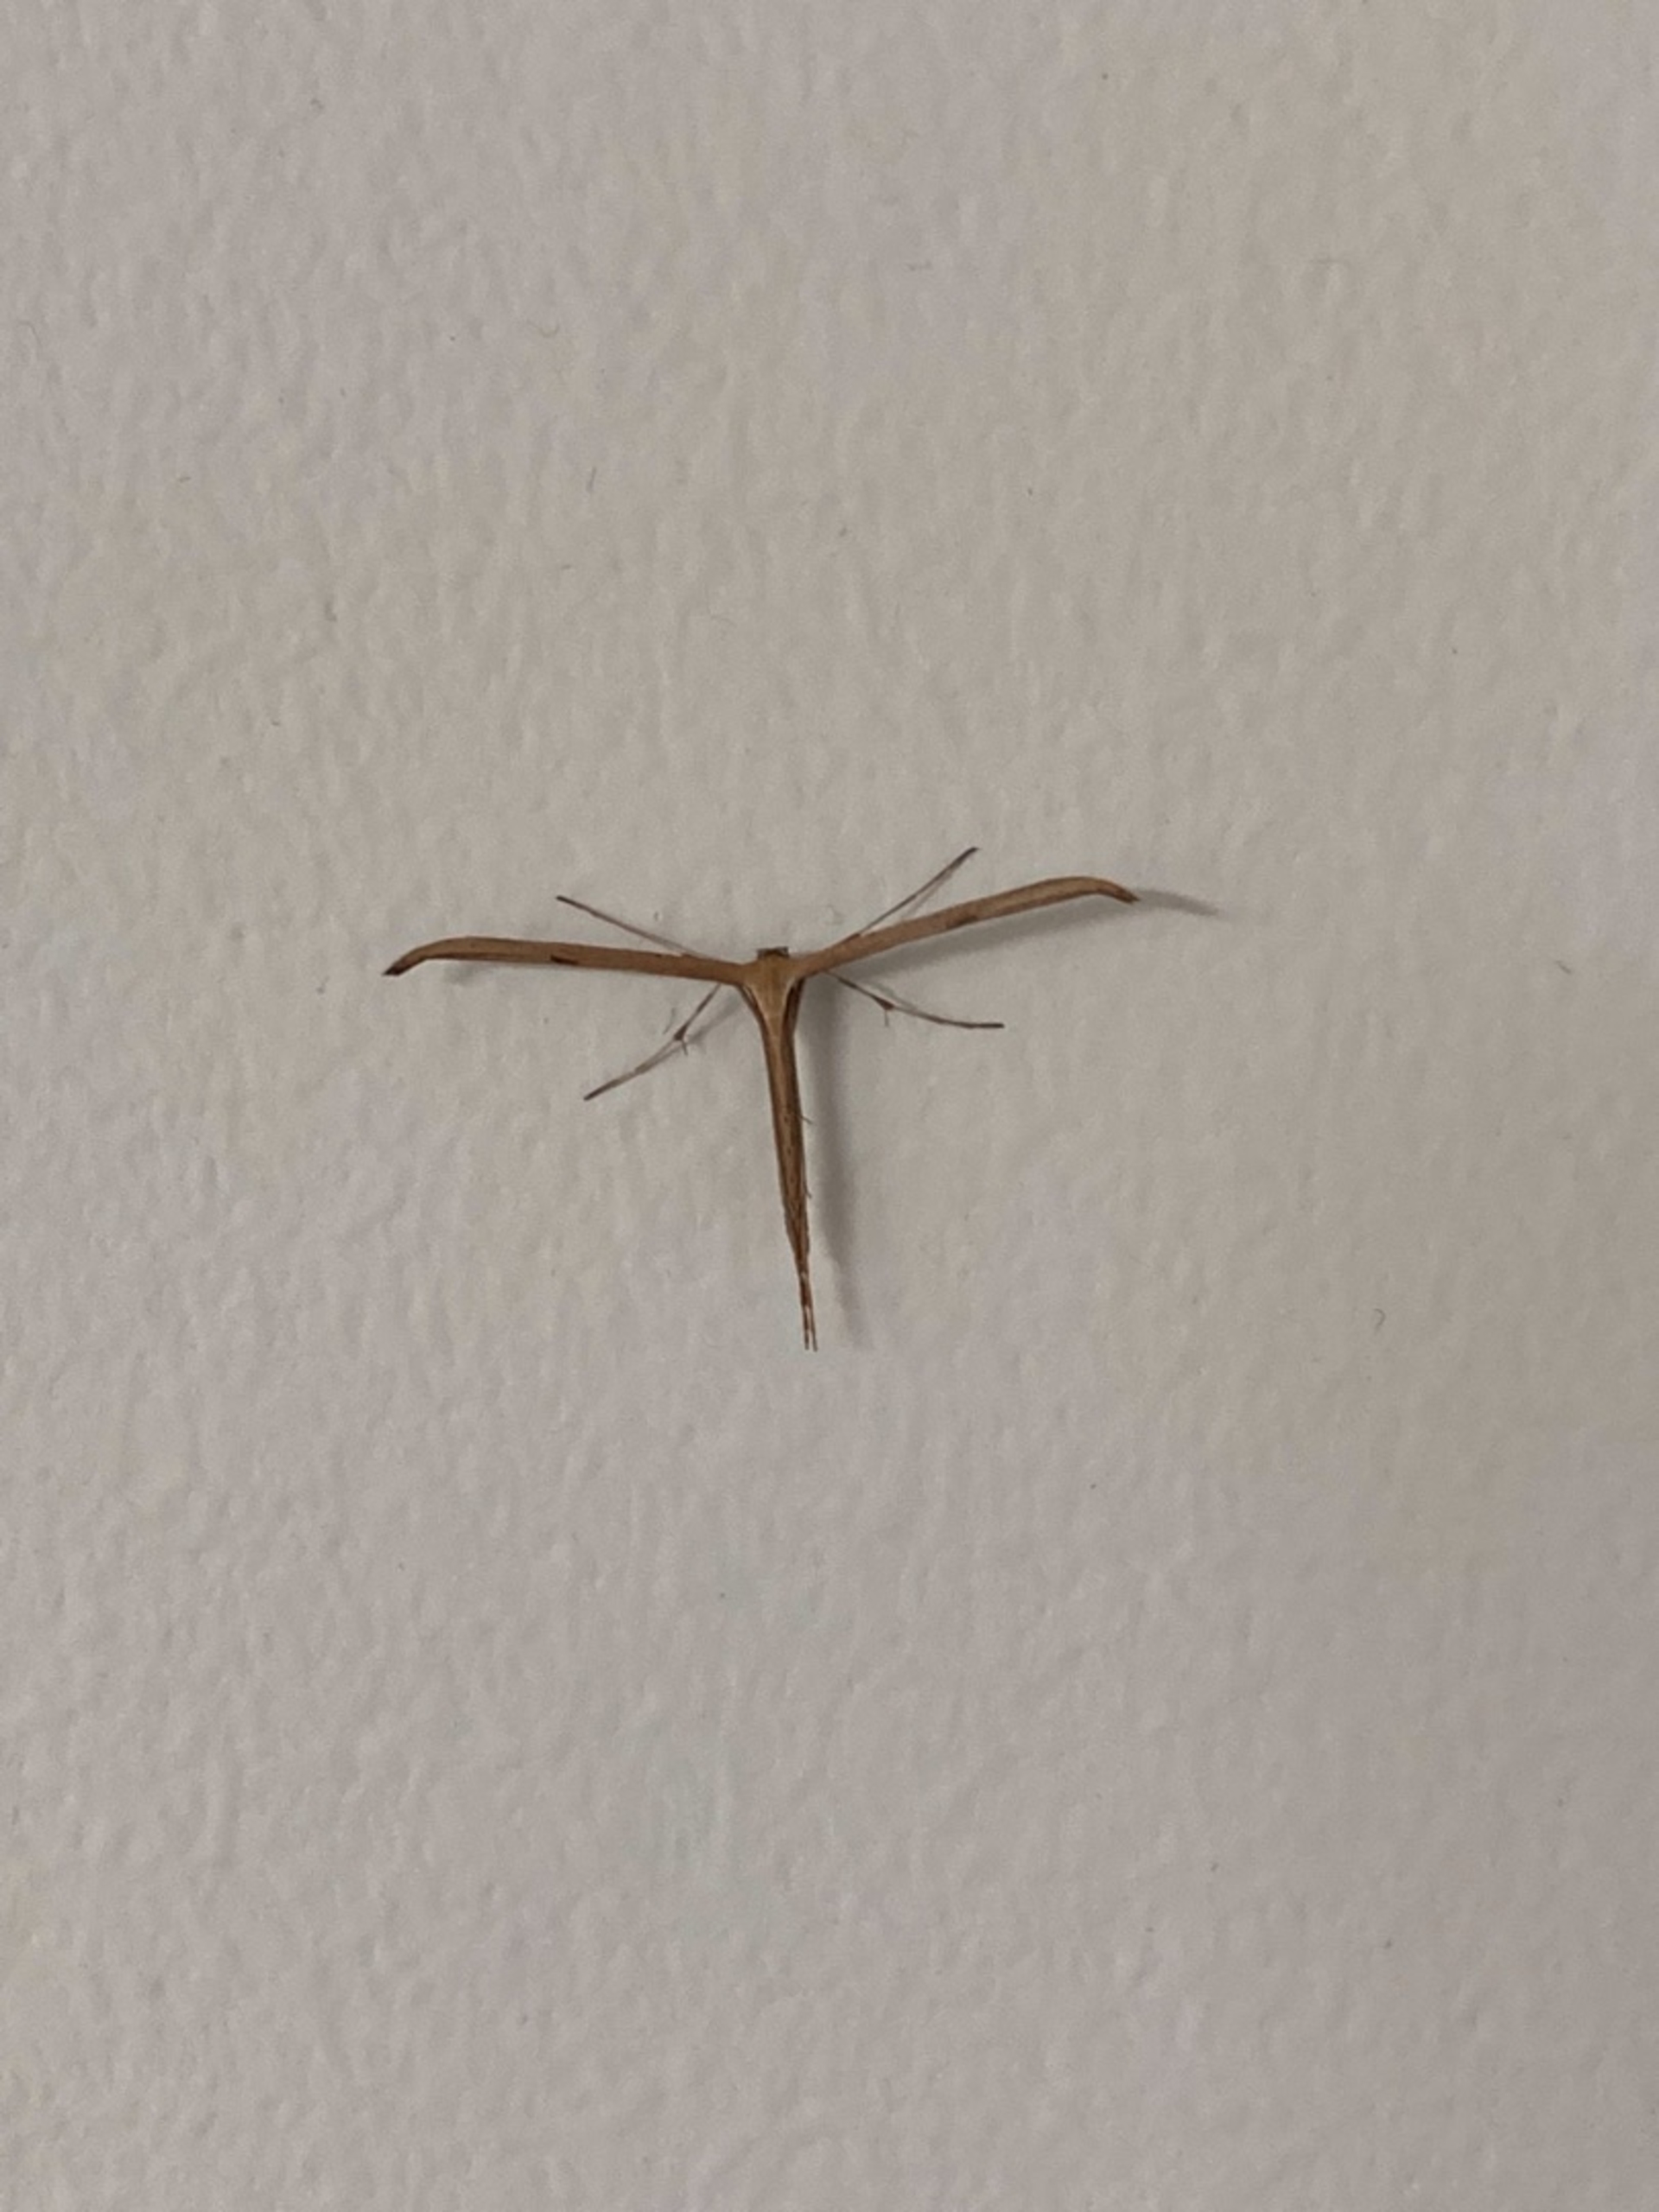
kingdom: Animalia
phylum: Arthropoda
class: Insecta
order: Lepidoptera
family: Pterophoridae
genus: Emmelina
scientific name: Emmelina monodactyla
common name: Snerlefjermøl
